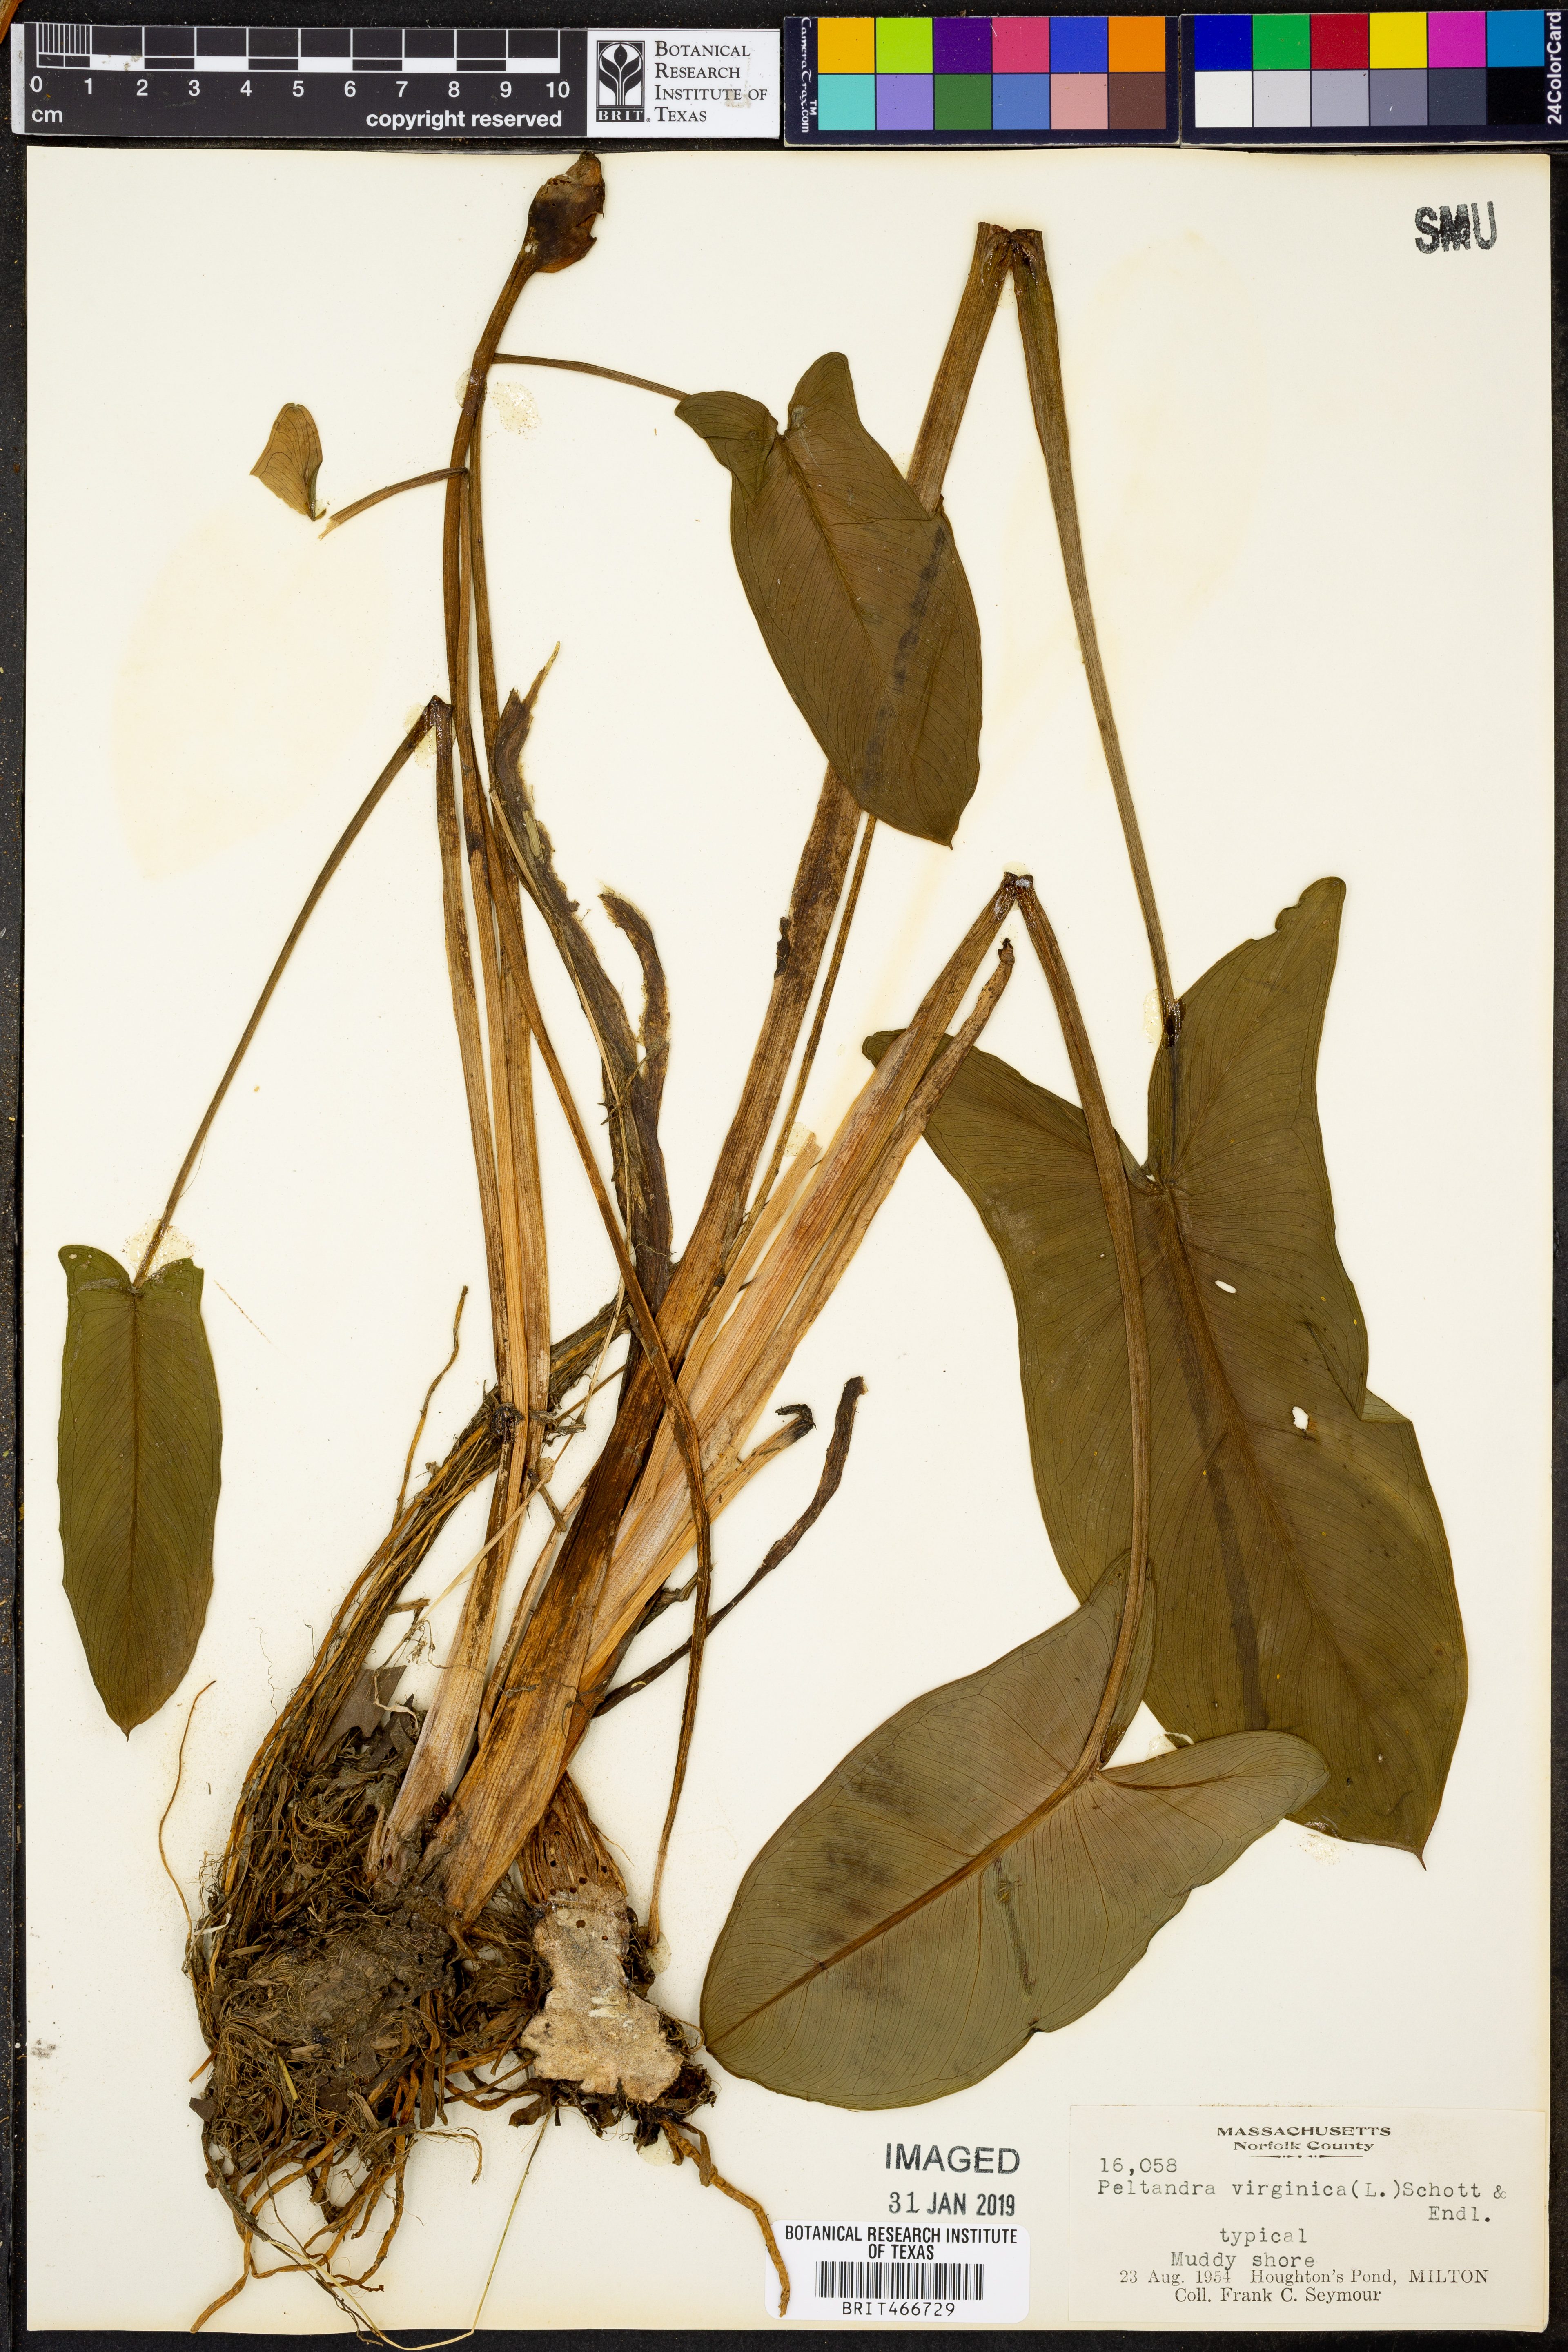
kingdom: Plantae
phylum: Tracheophyta
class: Liliopsida
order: Alismatales
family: Araceae
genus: Peltandra
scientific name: Peltandra virginica
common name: Arrow arum
